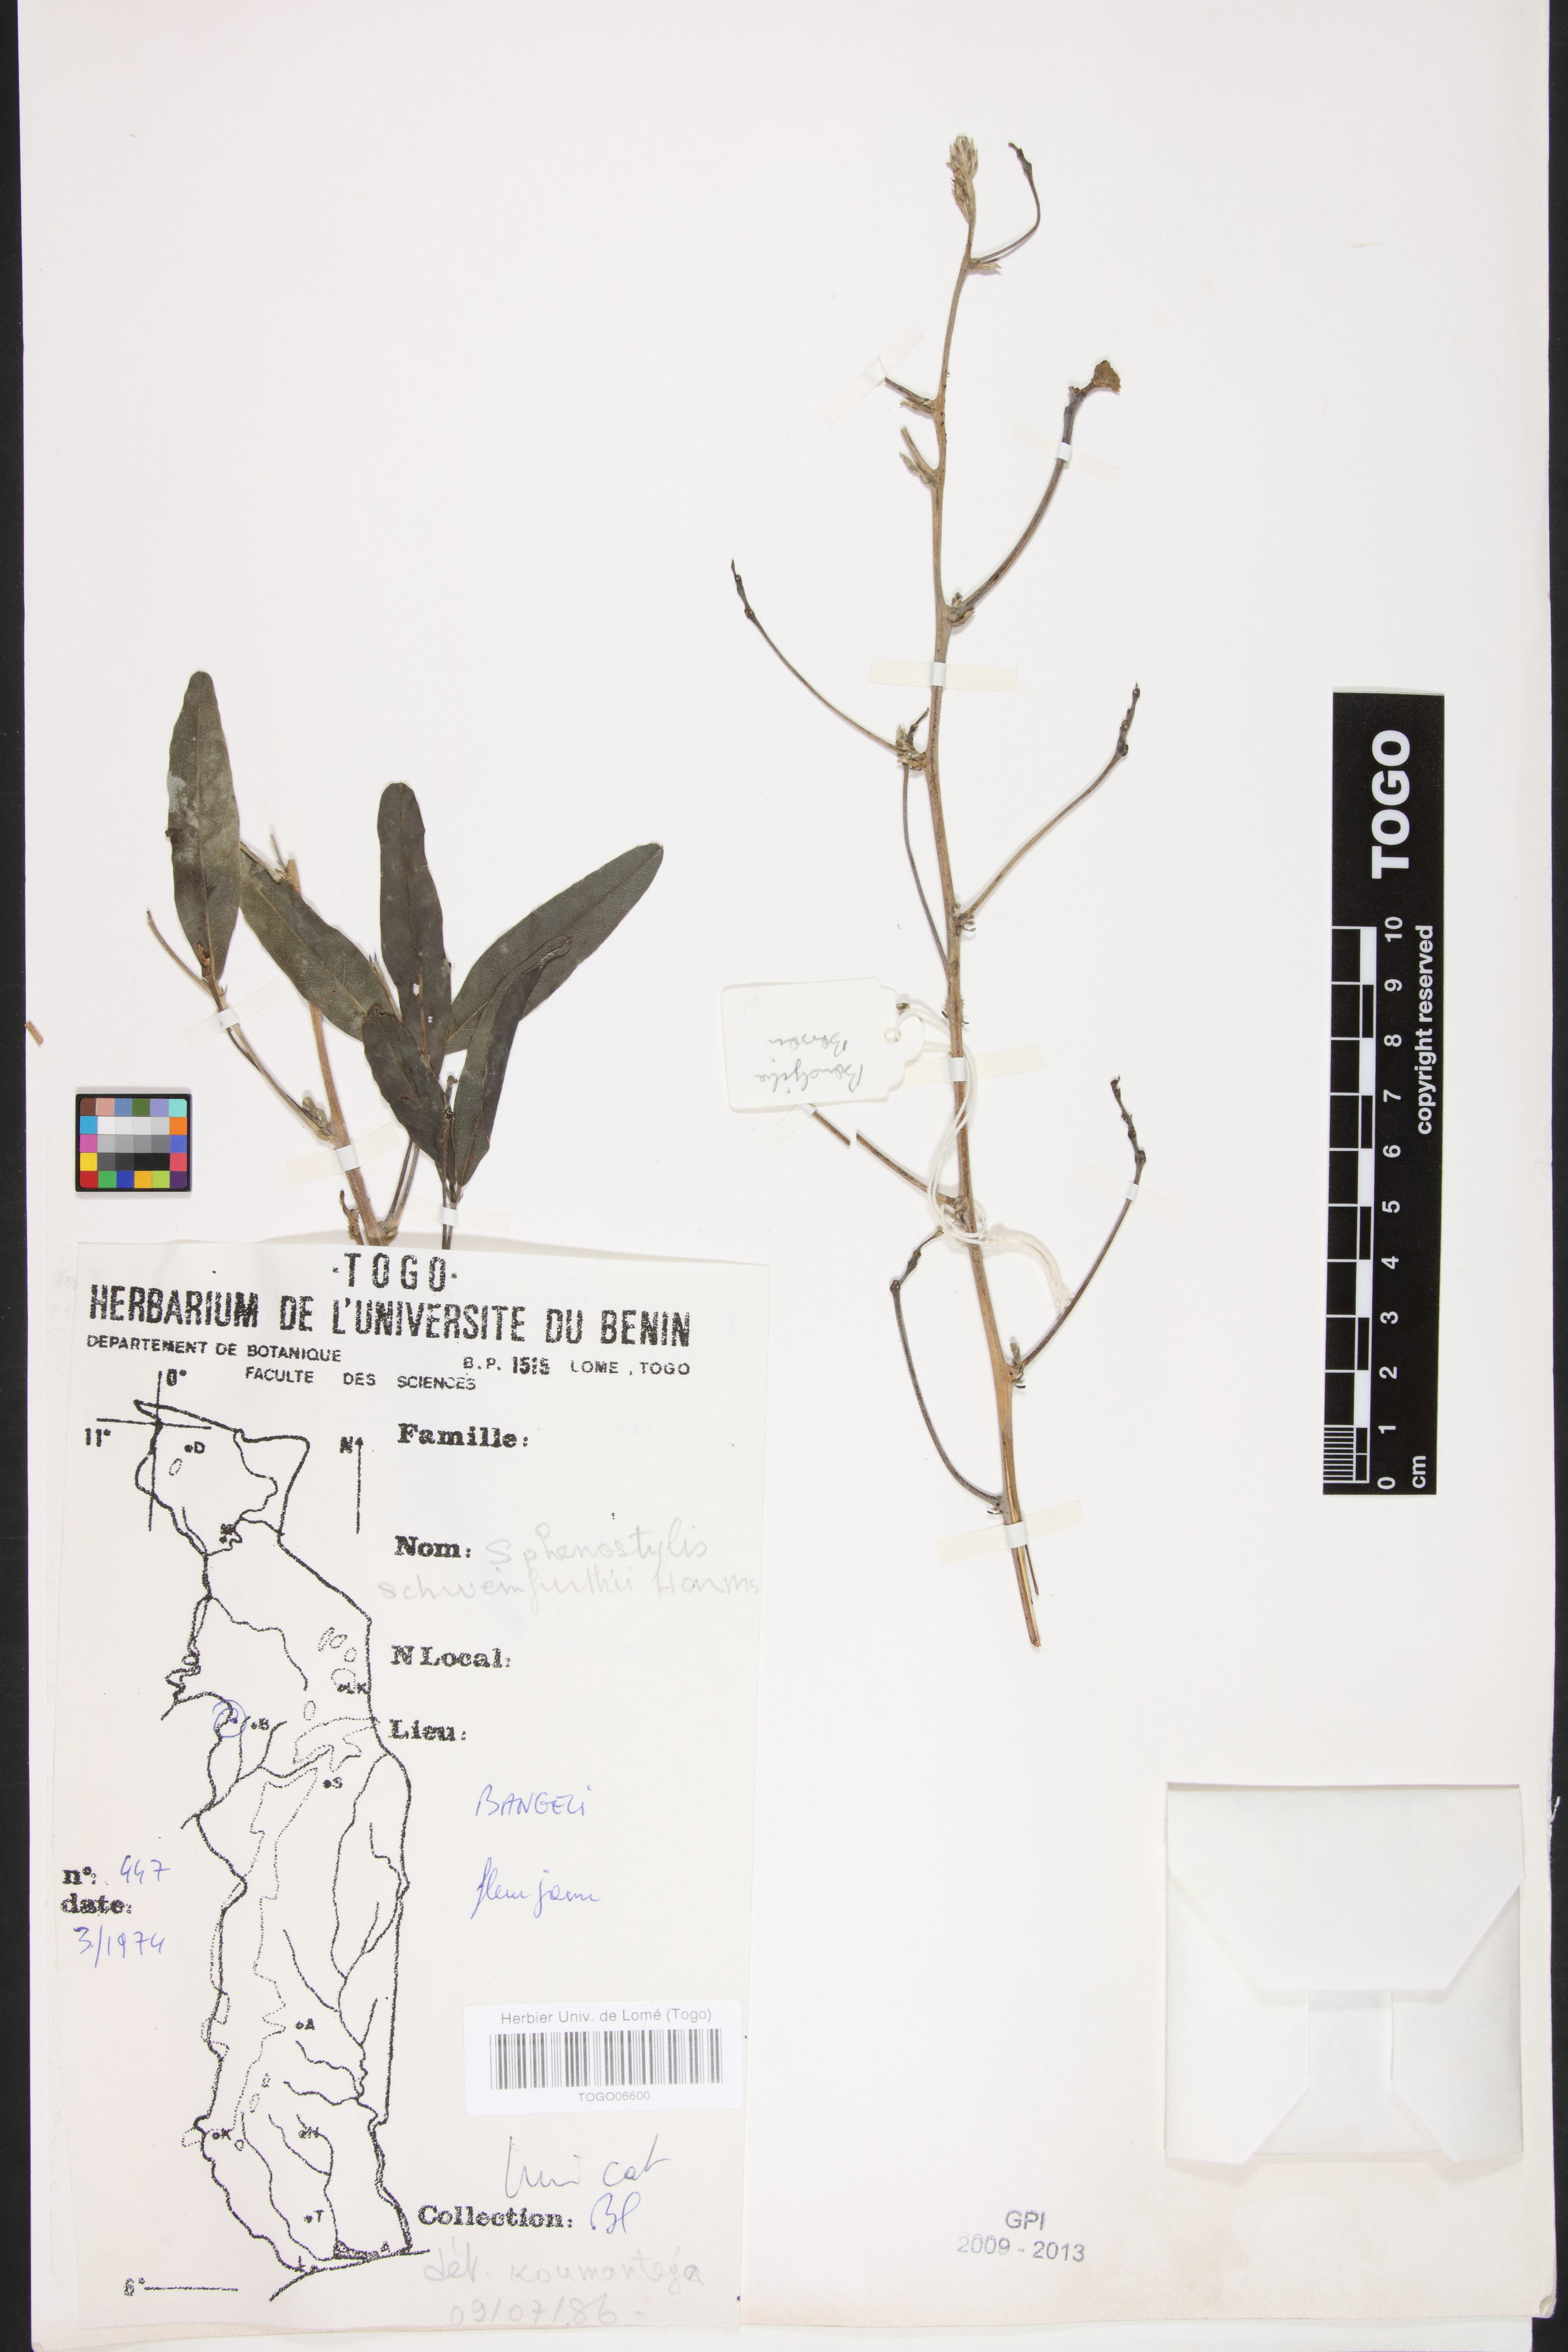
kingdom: Plantae
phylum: Tracheophyta
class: Magnoliopsida
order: Fabales
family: Fabaceae
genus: Sphenostylis
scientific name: Sphenostylis schweinfurthii
